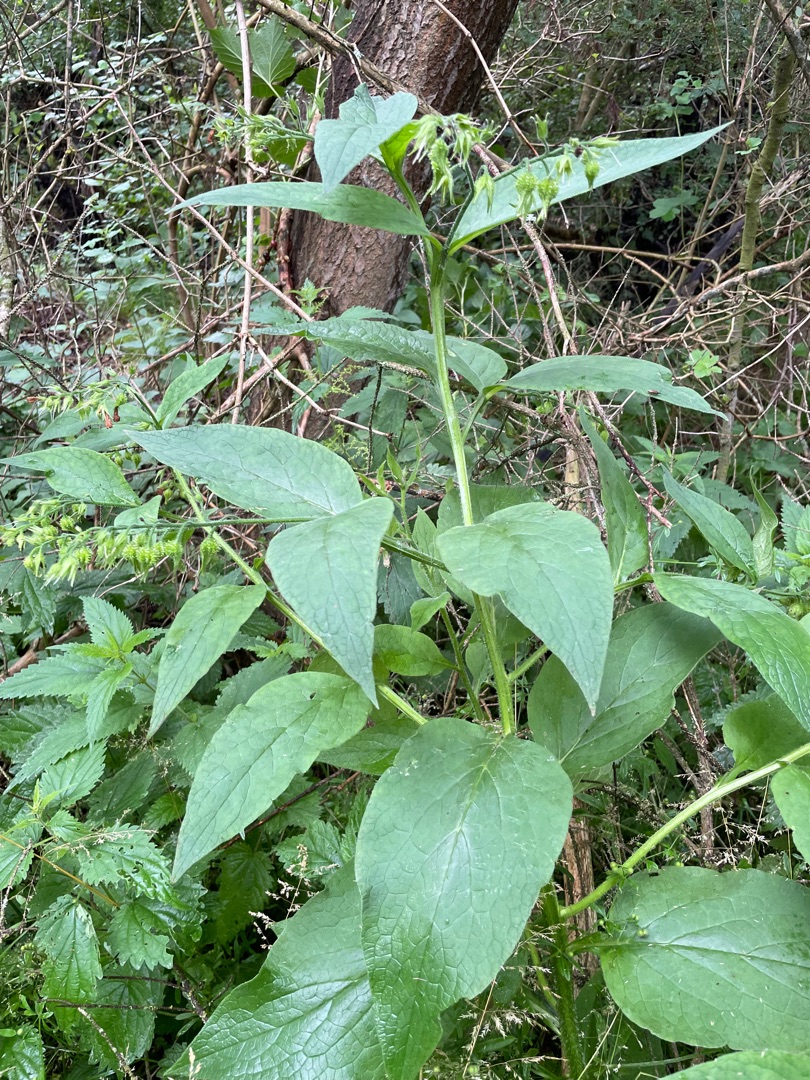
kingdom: Plantae
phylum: Tracheophyta
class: Magnoliopsida
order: Boraginales
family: Boraginaceae
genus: Symphytum
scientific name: Symphytum officinale
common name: Læge-kulsukker
